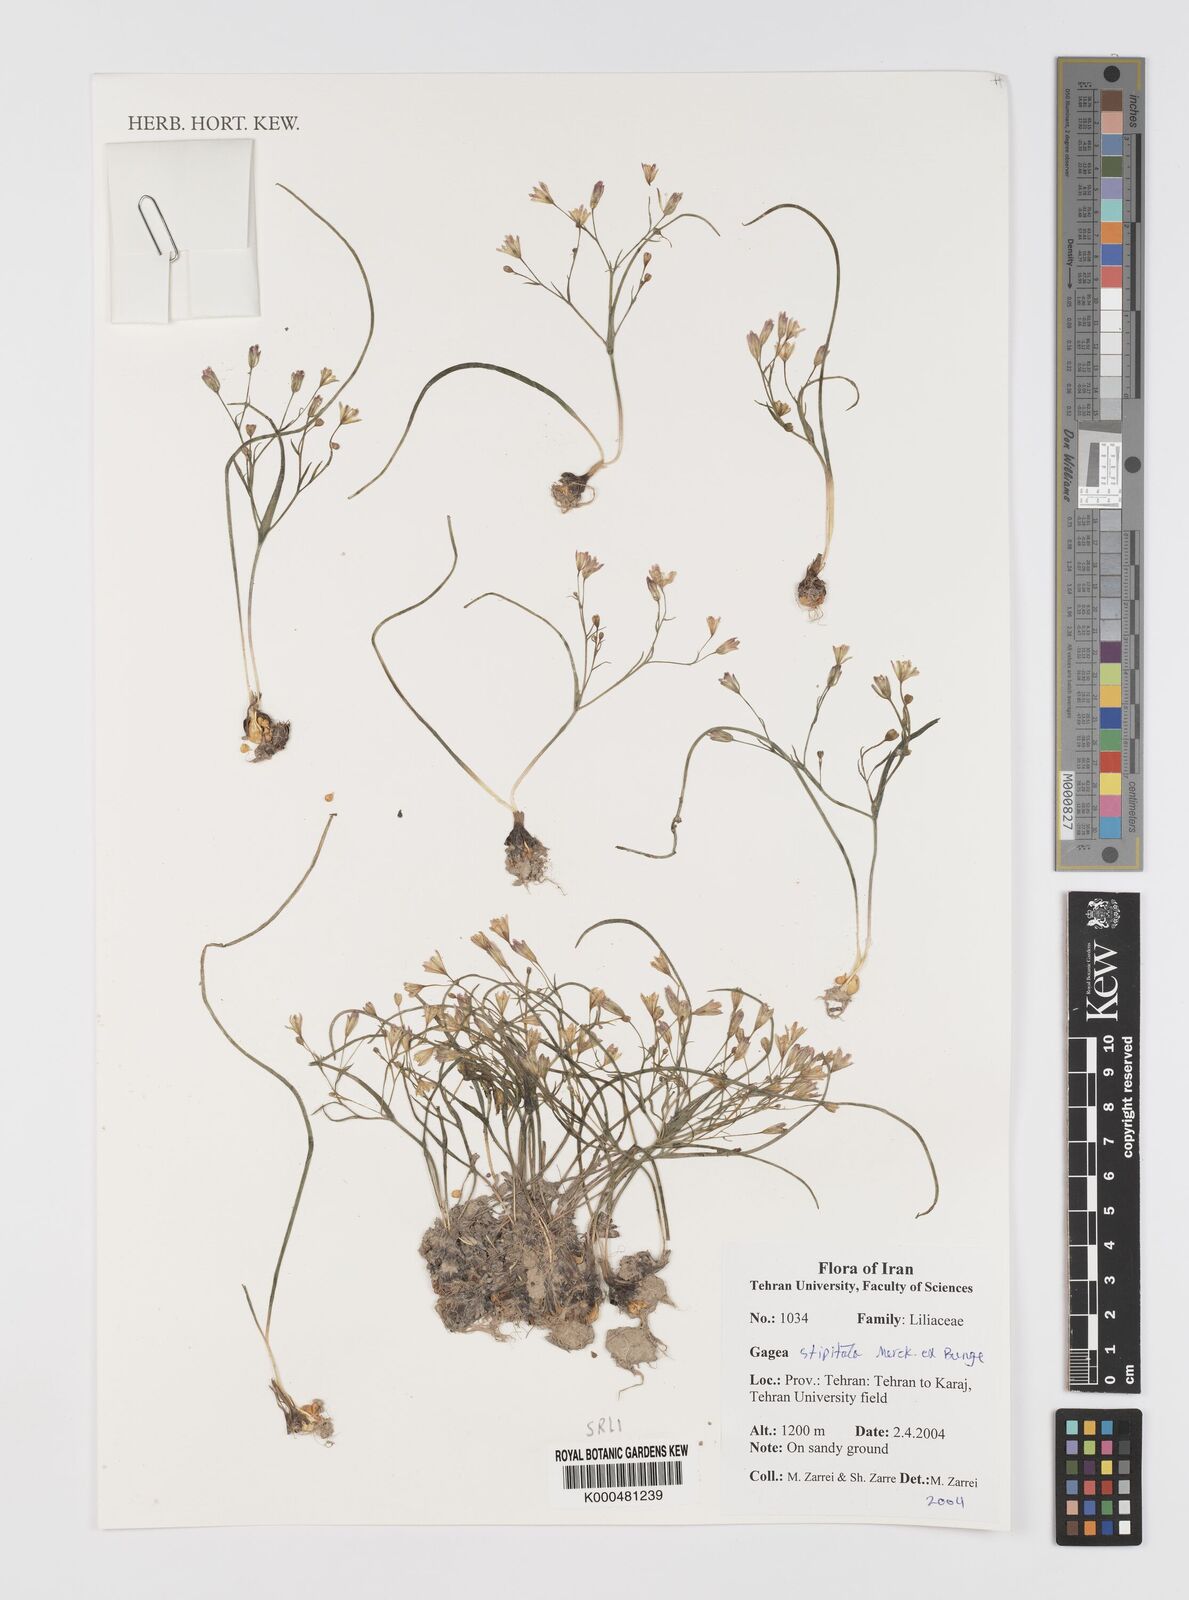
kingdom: Plantae
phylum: Tracheophyta
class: Liliopsida
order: Liliales
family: Liliaceae
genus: Gagea
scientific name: Gagea kunawurensis
